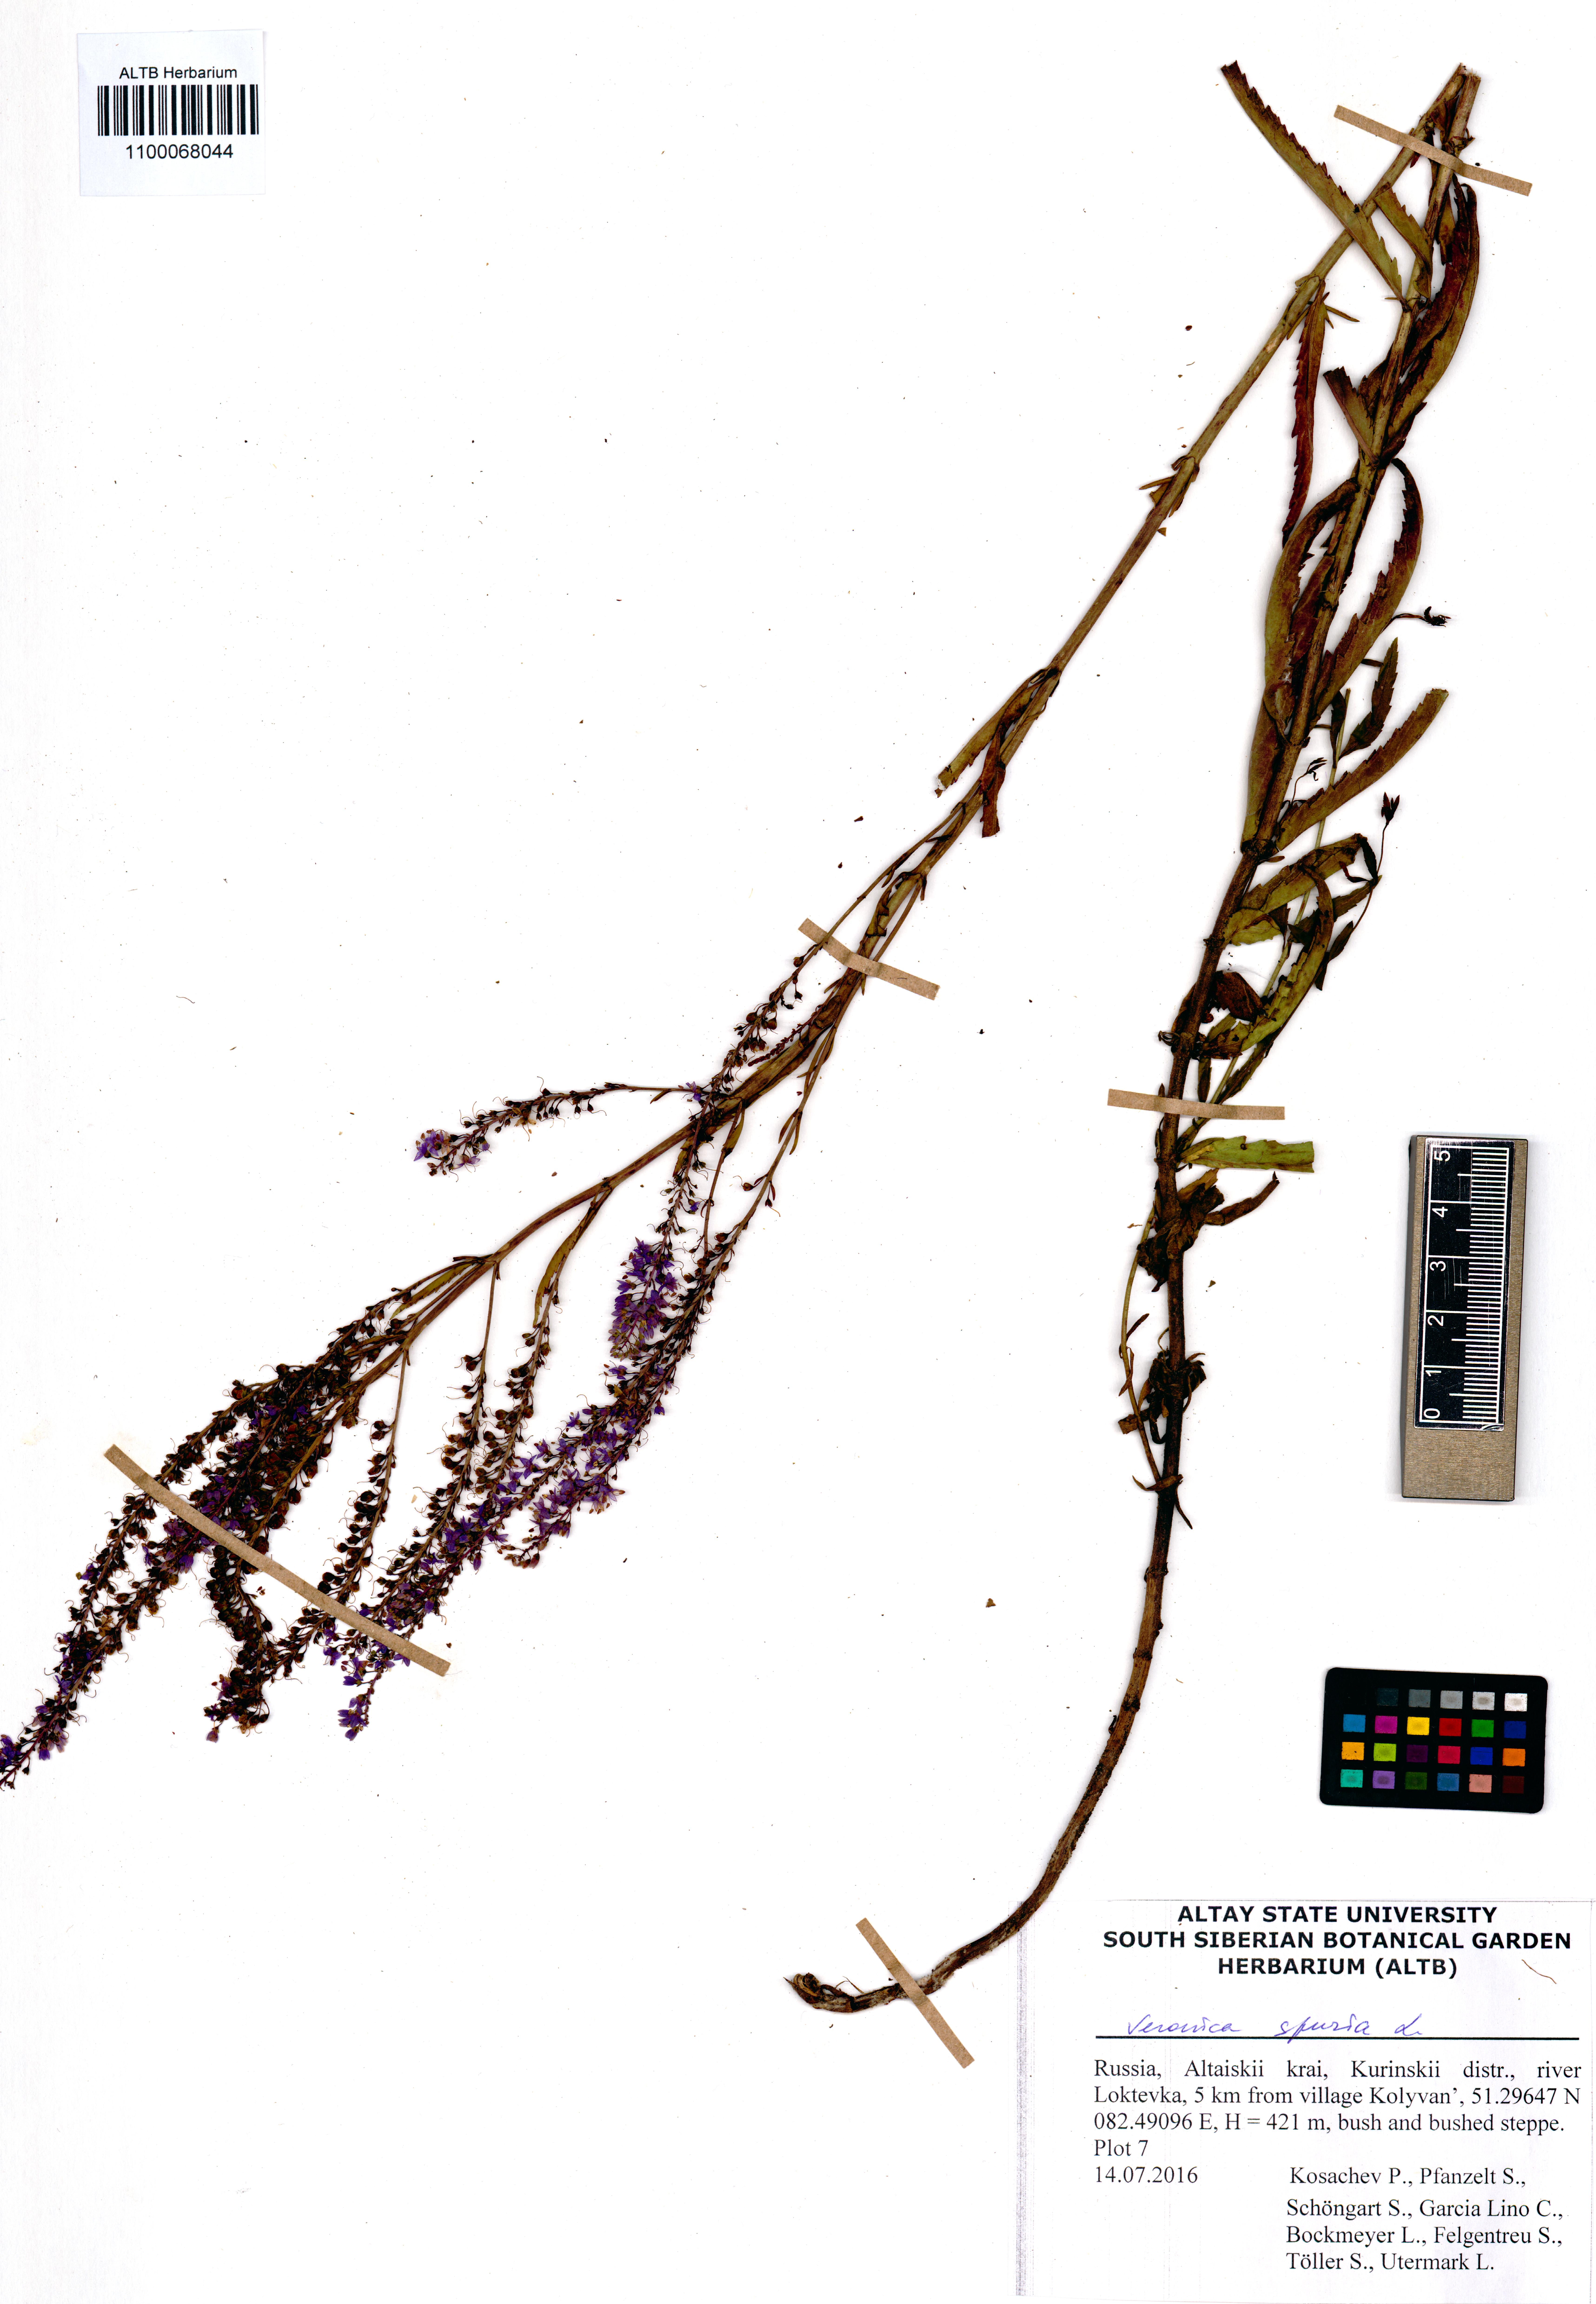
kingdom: Plantae
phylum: Tracheophyta
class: Magnoliopsida
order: Lamiales
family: Plantaginaceae
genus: Veronica
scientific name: Veronica spuria
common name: Bastard speedwell
